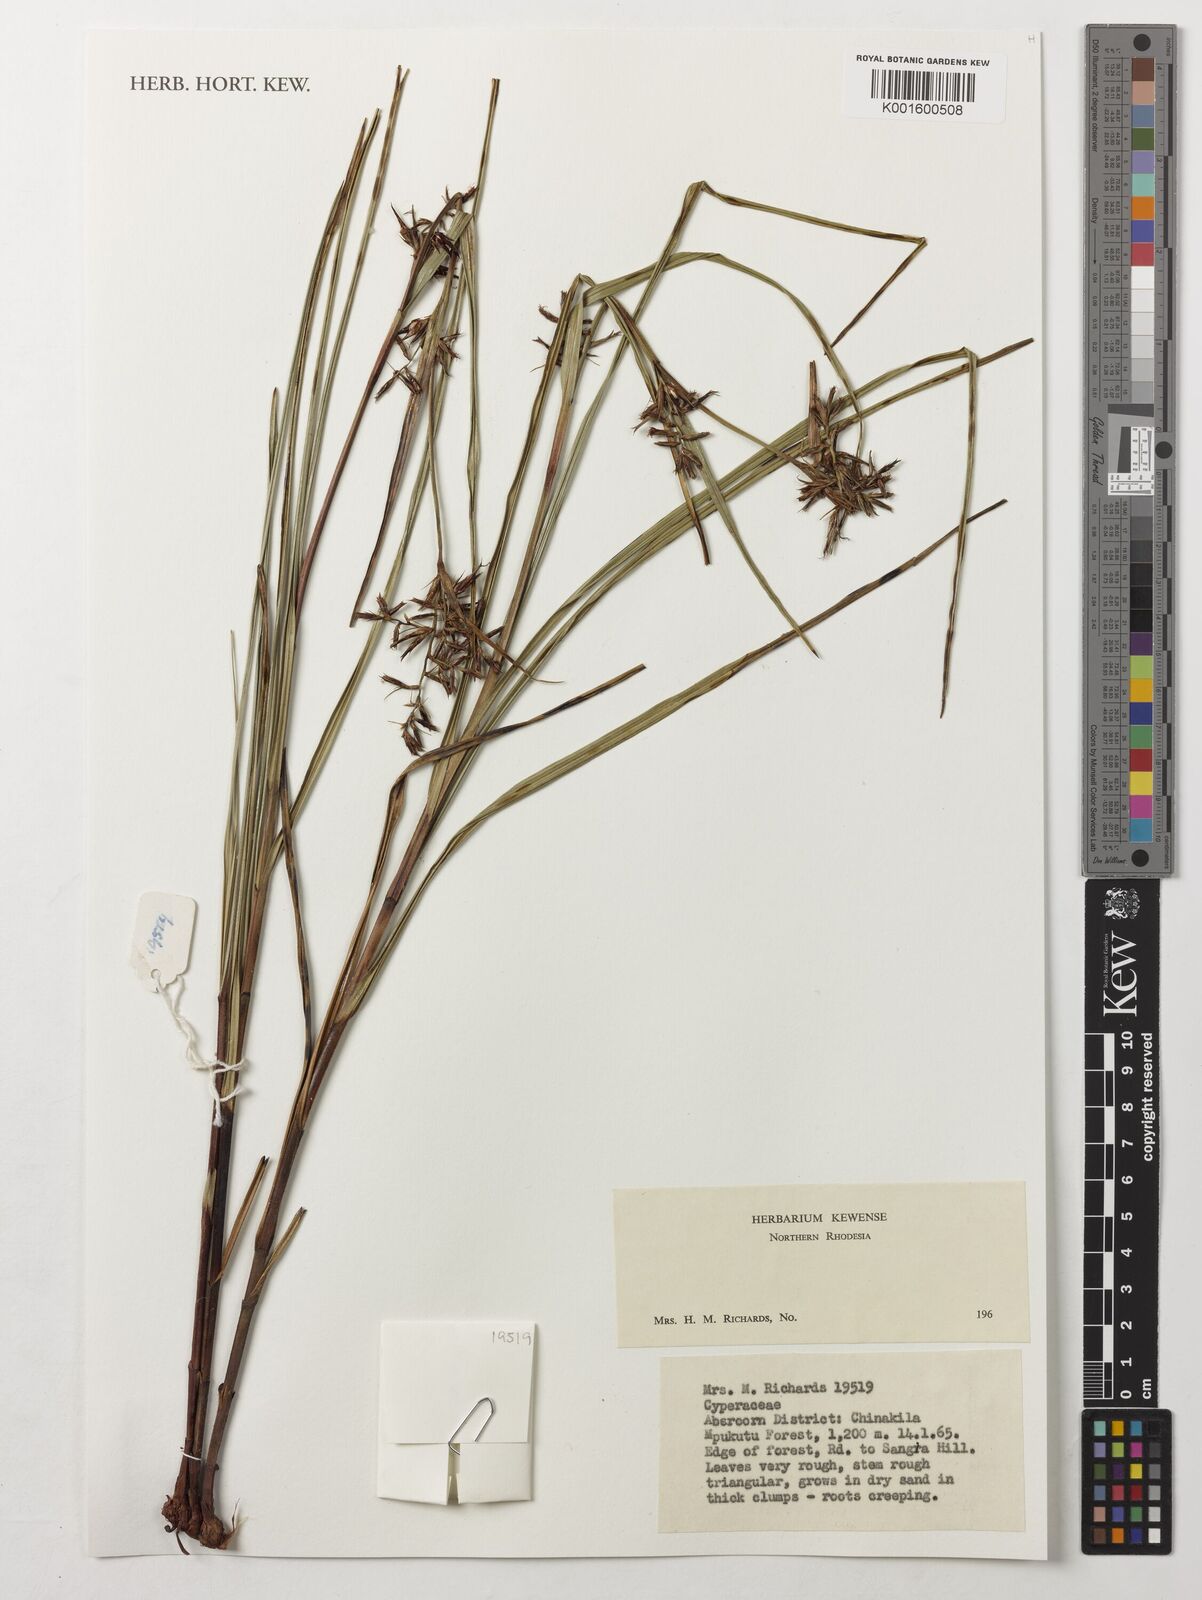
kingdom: Plantae
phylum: Tracheophyta
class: Liliopsida
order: Poales
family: Cyperaceae
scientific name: Cyperaceae
